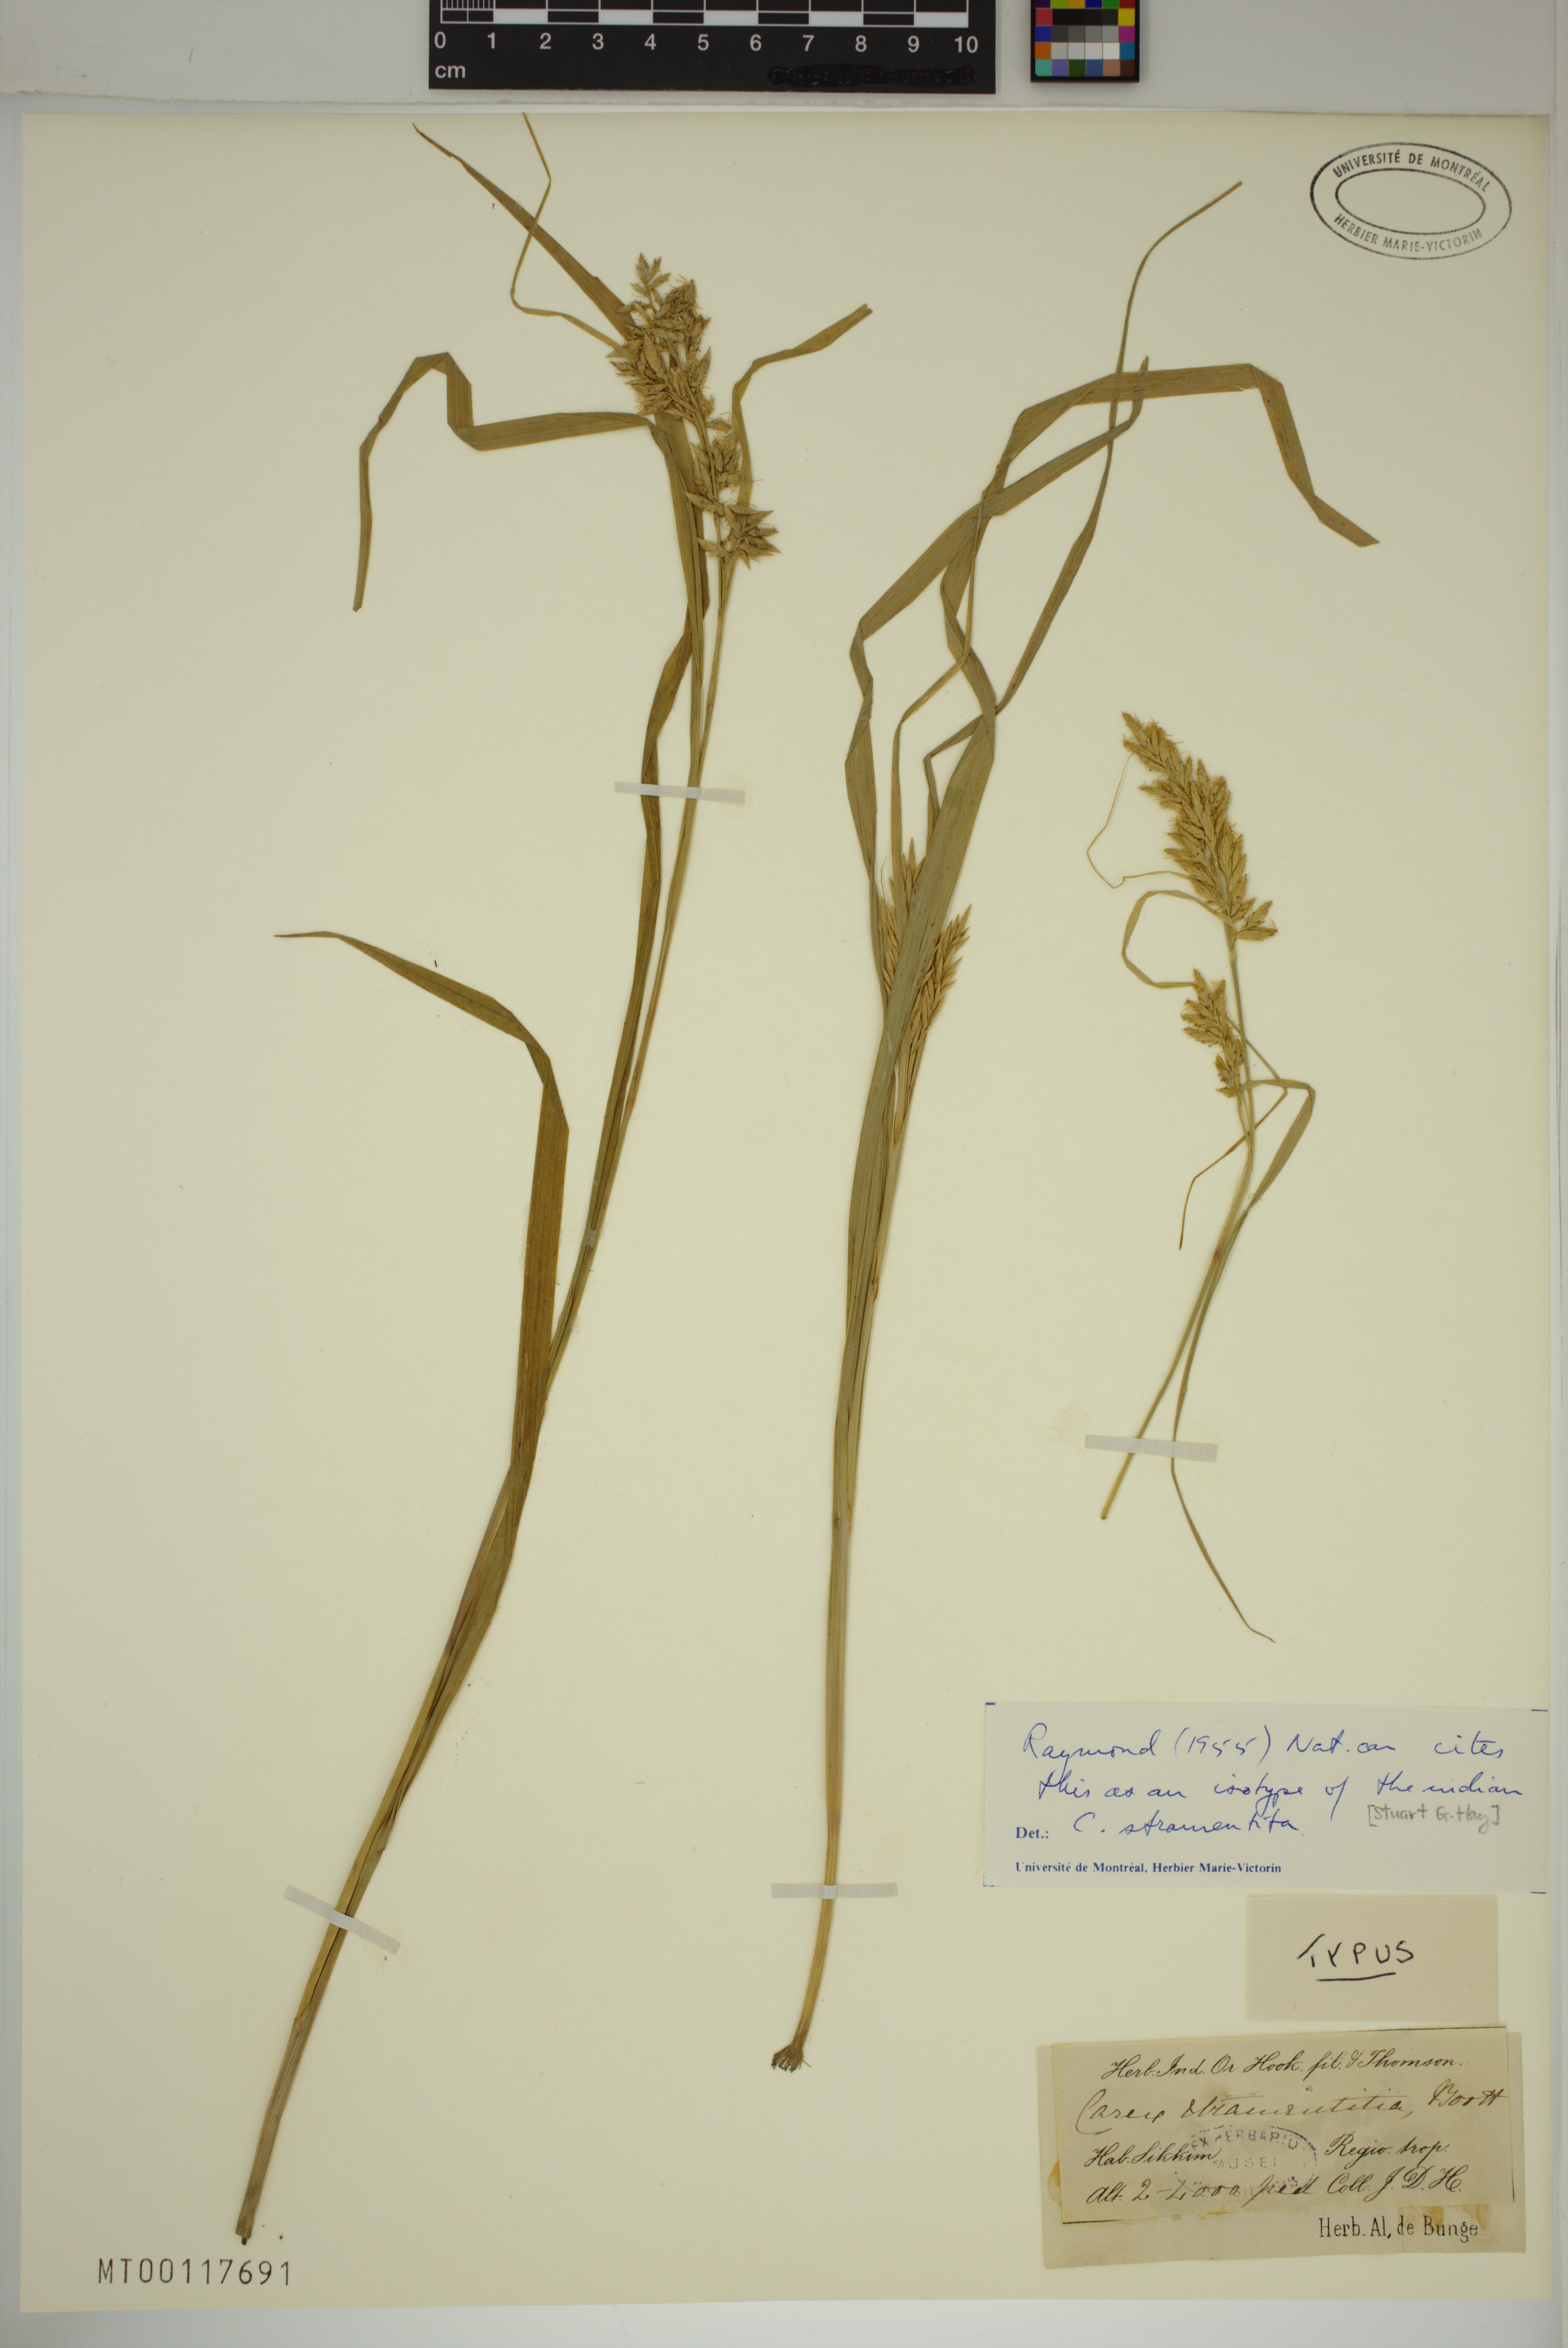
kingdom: Plantae
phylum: Tracheophyta
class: Liliopsida
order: Poales
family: Cyperaceae
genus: Carex
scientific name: Carex stramentitia
